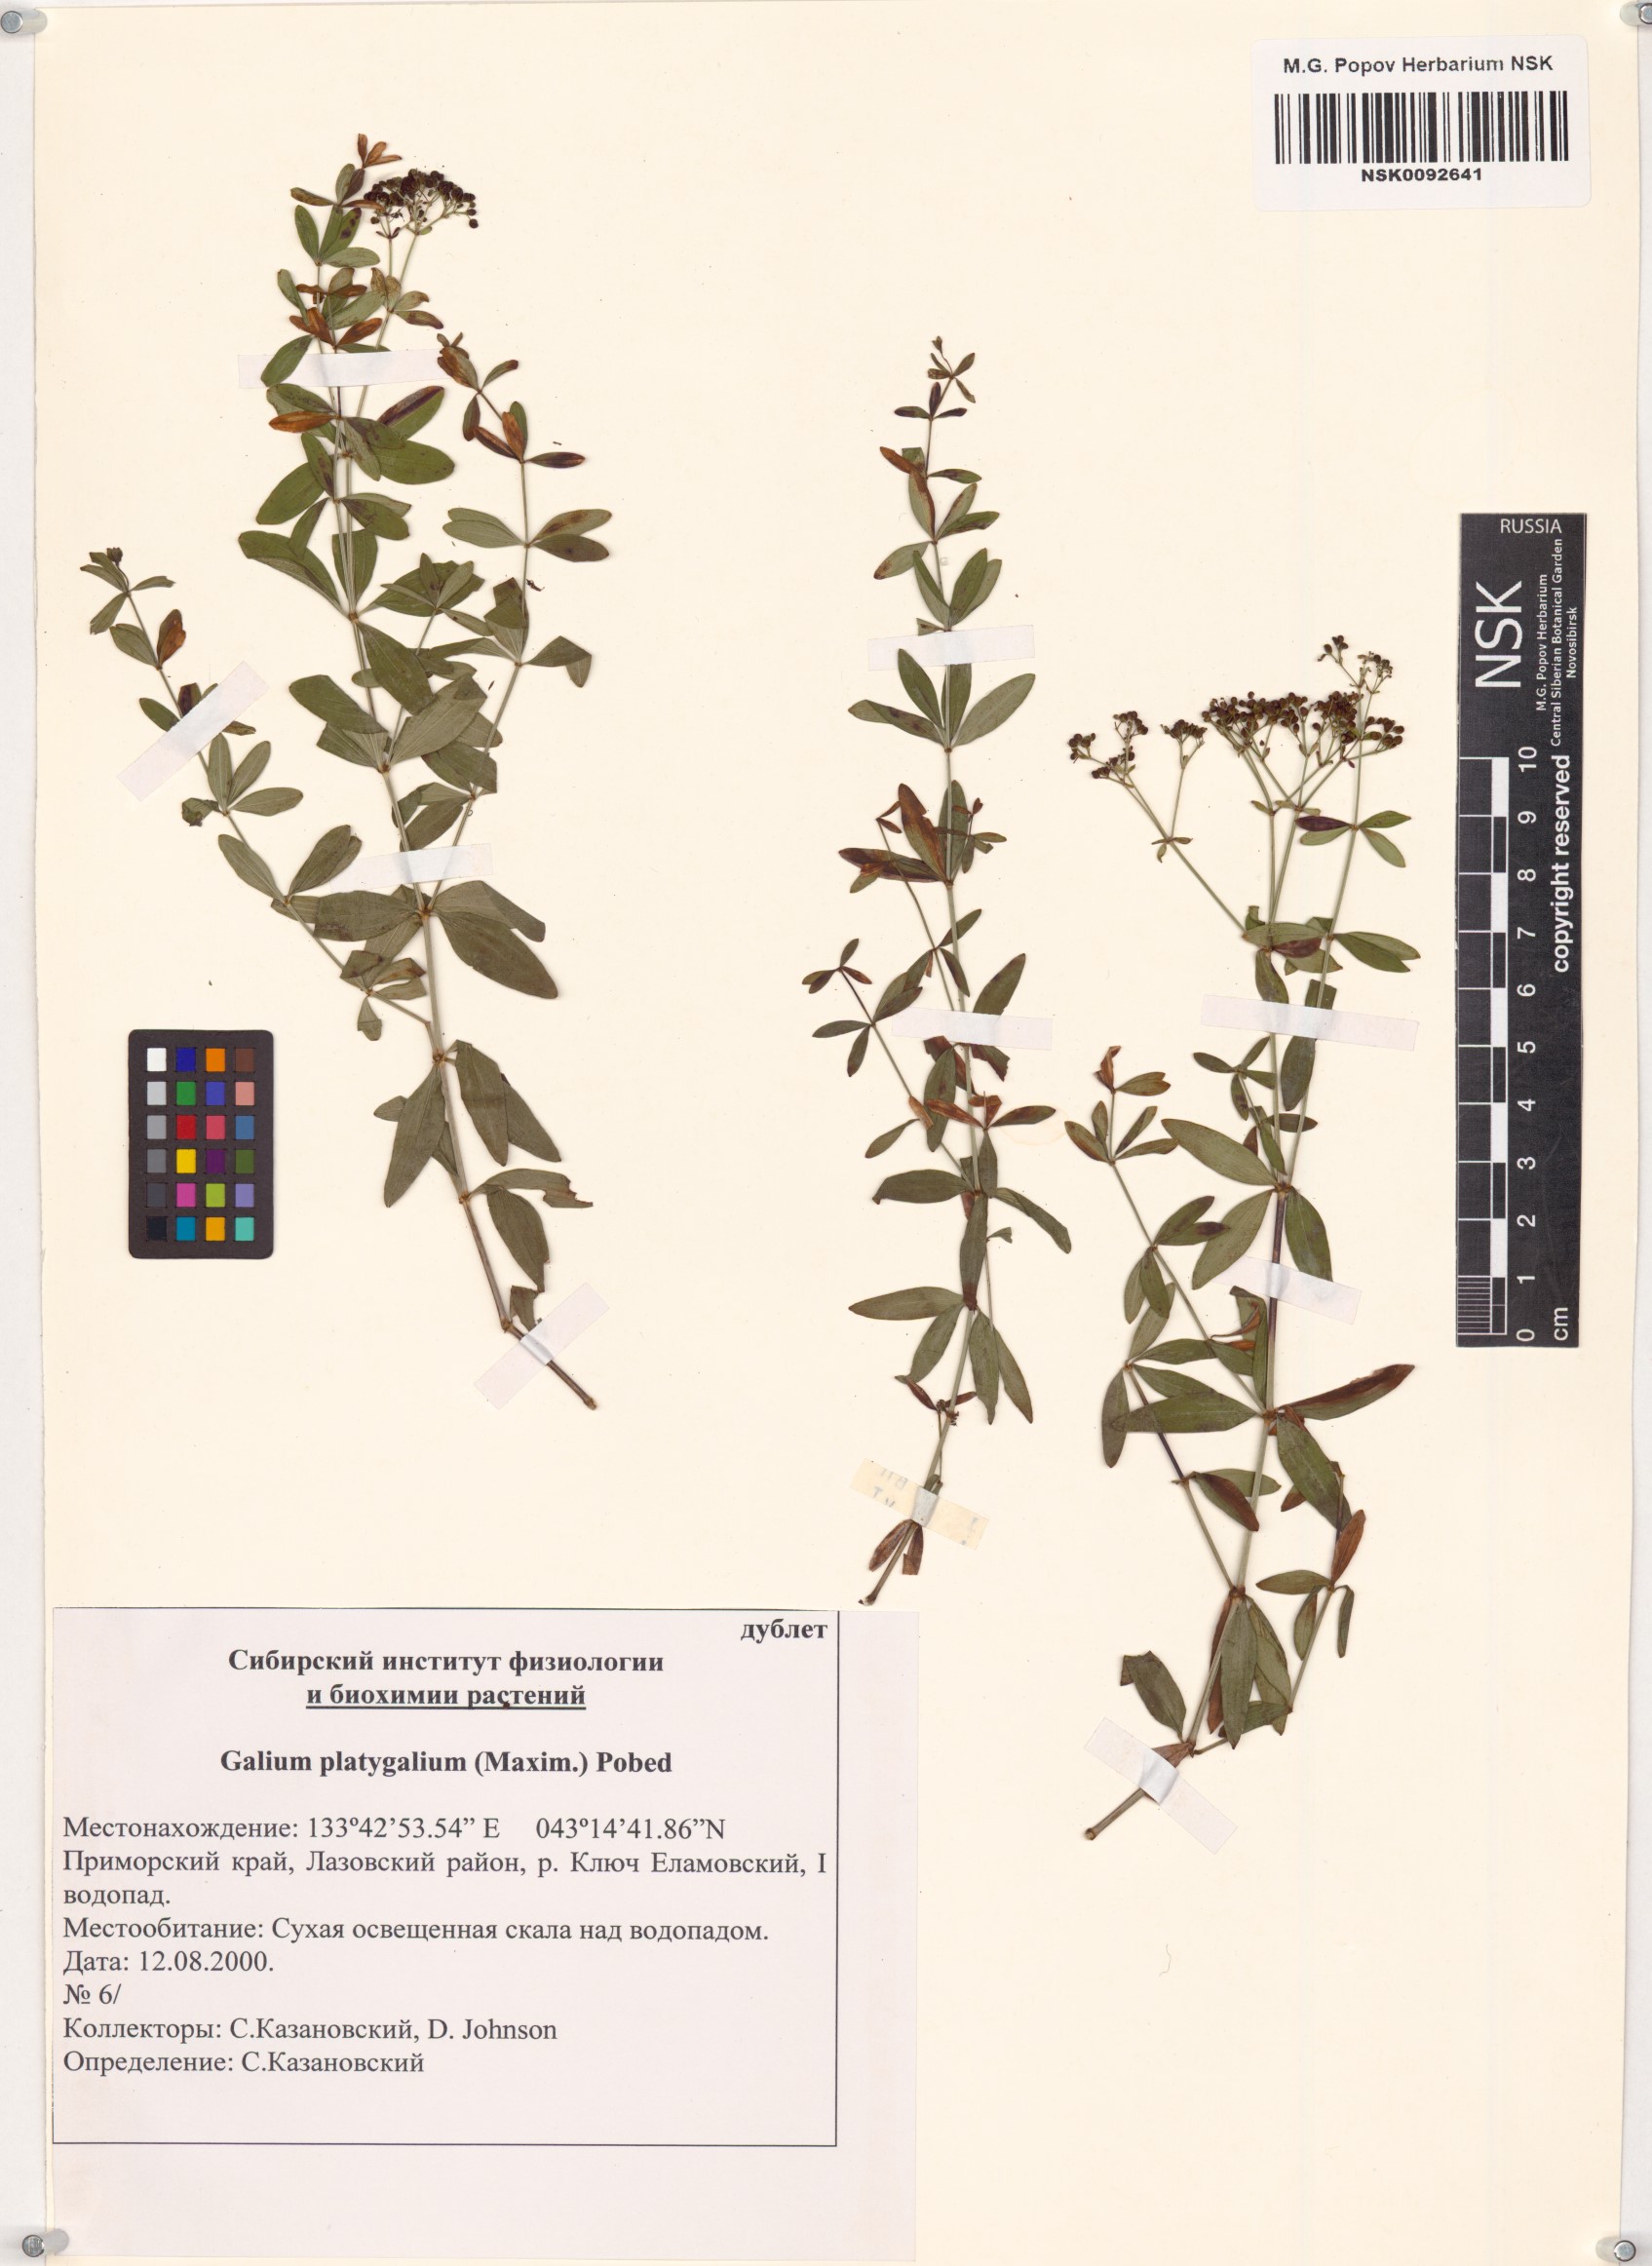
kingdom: Plantae
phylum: Tracheophyta
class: Magnoliopsida
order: Gentianales
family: Rubiaceae
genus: Galium
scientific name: Galium platygalium
